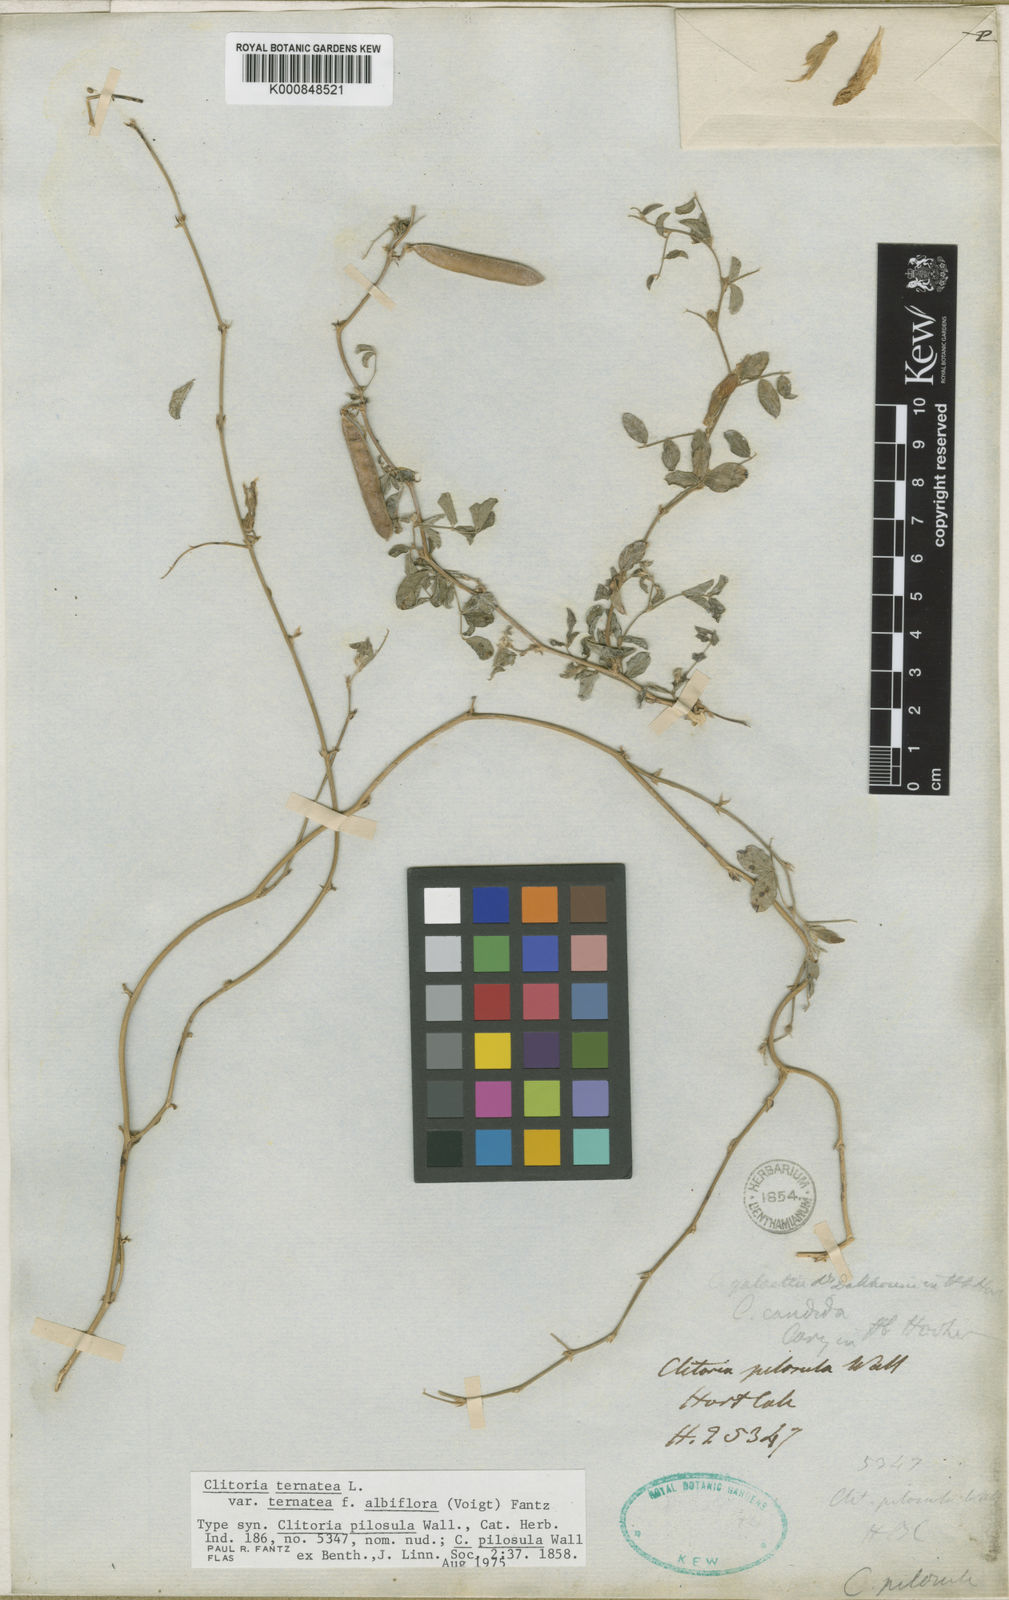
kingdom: Plantae
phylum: Tracheophyta
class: Magnoliopsida
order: Fabales
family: Fabaceae
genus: Clitoria
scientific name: Clitoria ternatea
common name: Asian pigeonwings
